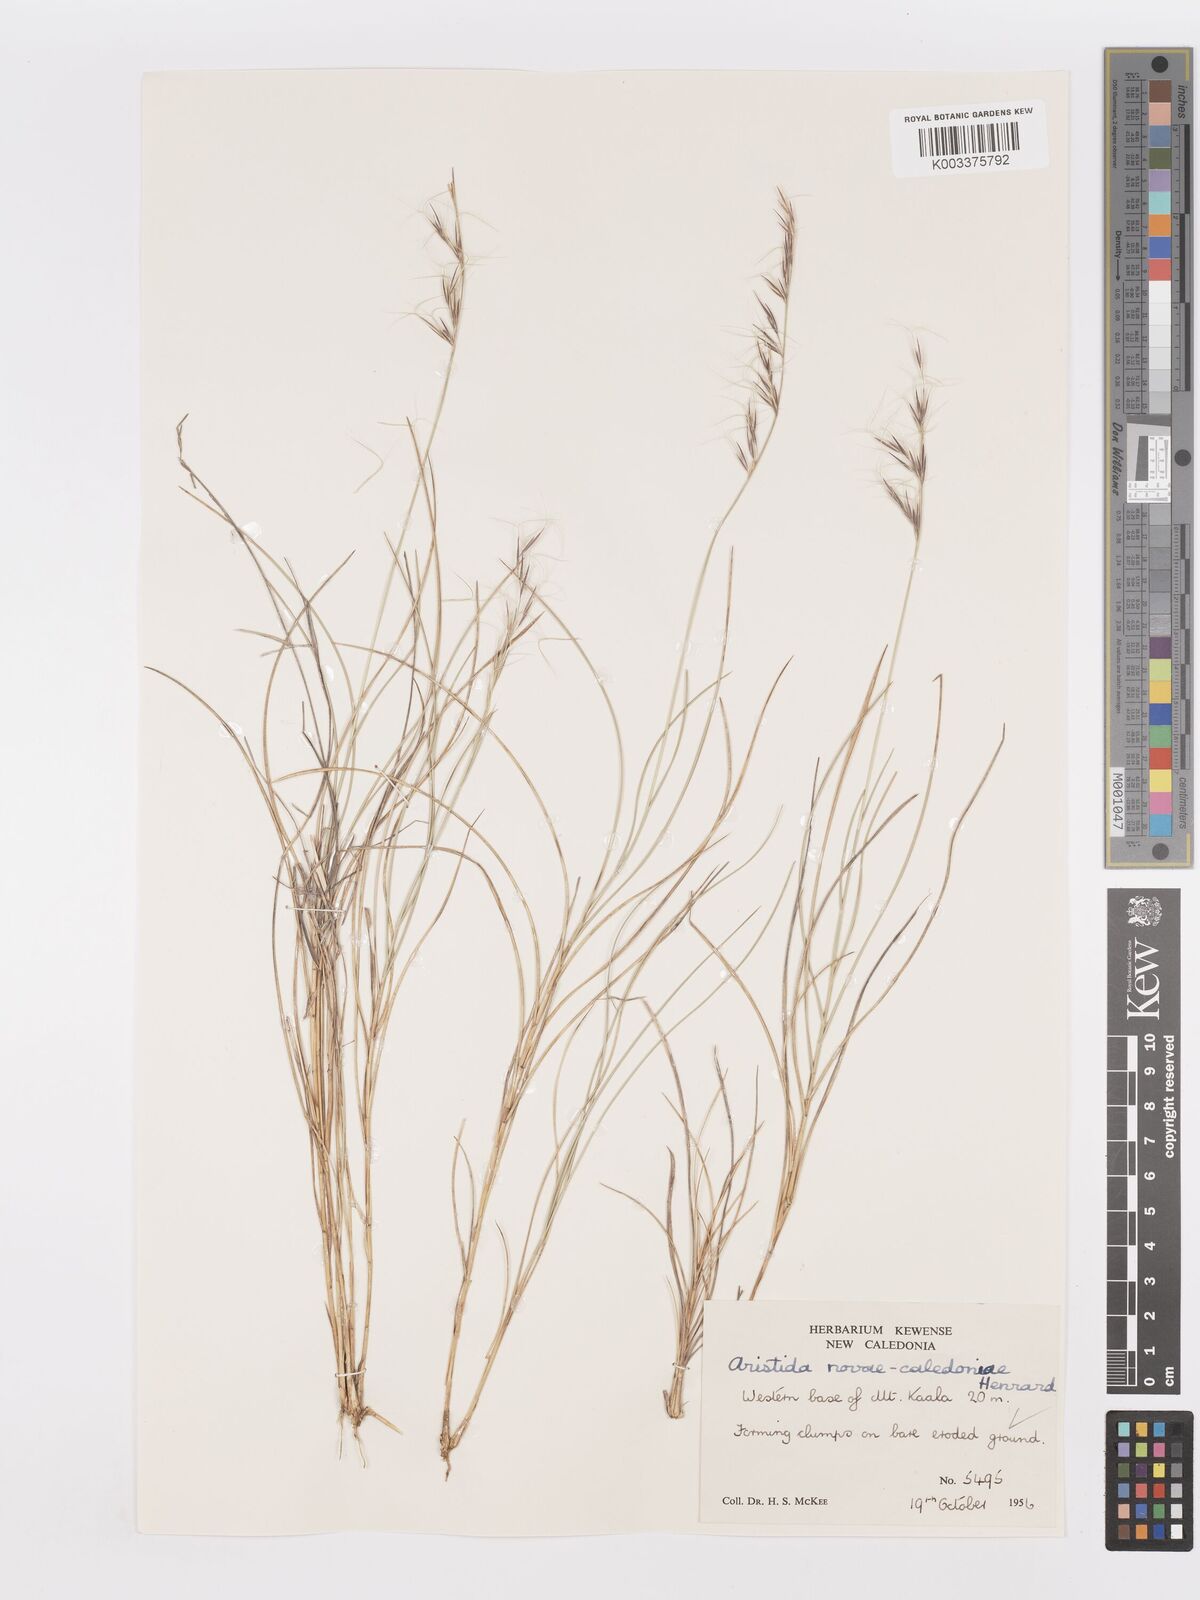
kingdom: Plantae
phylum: Tracheophyta
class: Liliopsida
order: Poales
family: Poaceae
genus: Aristida
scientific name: Aristida novae-caledoniae
